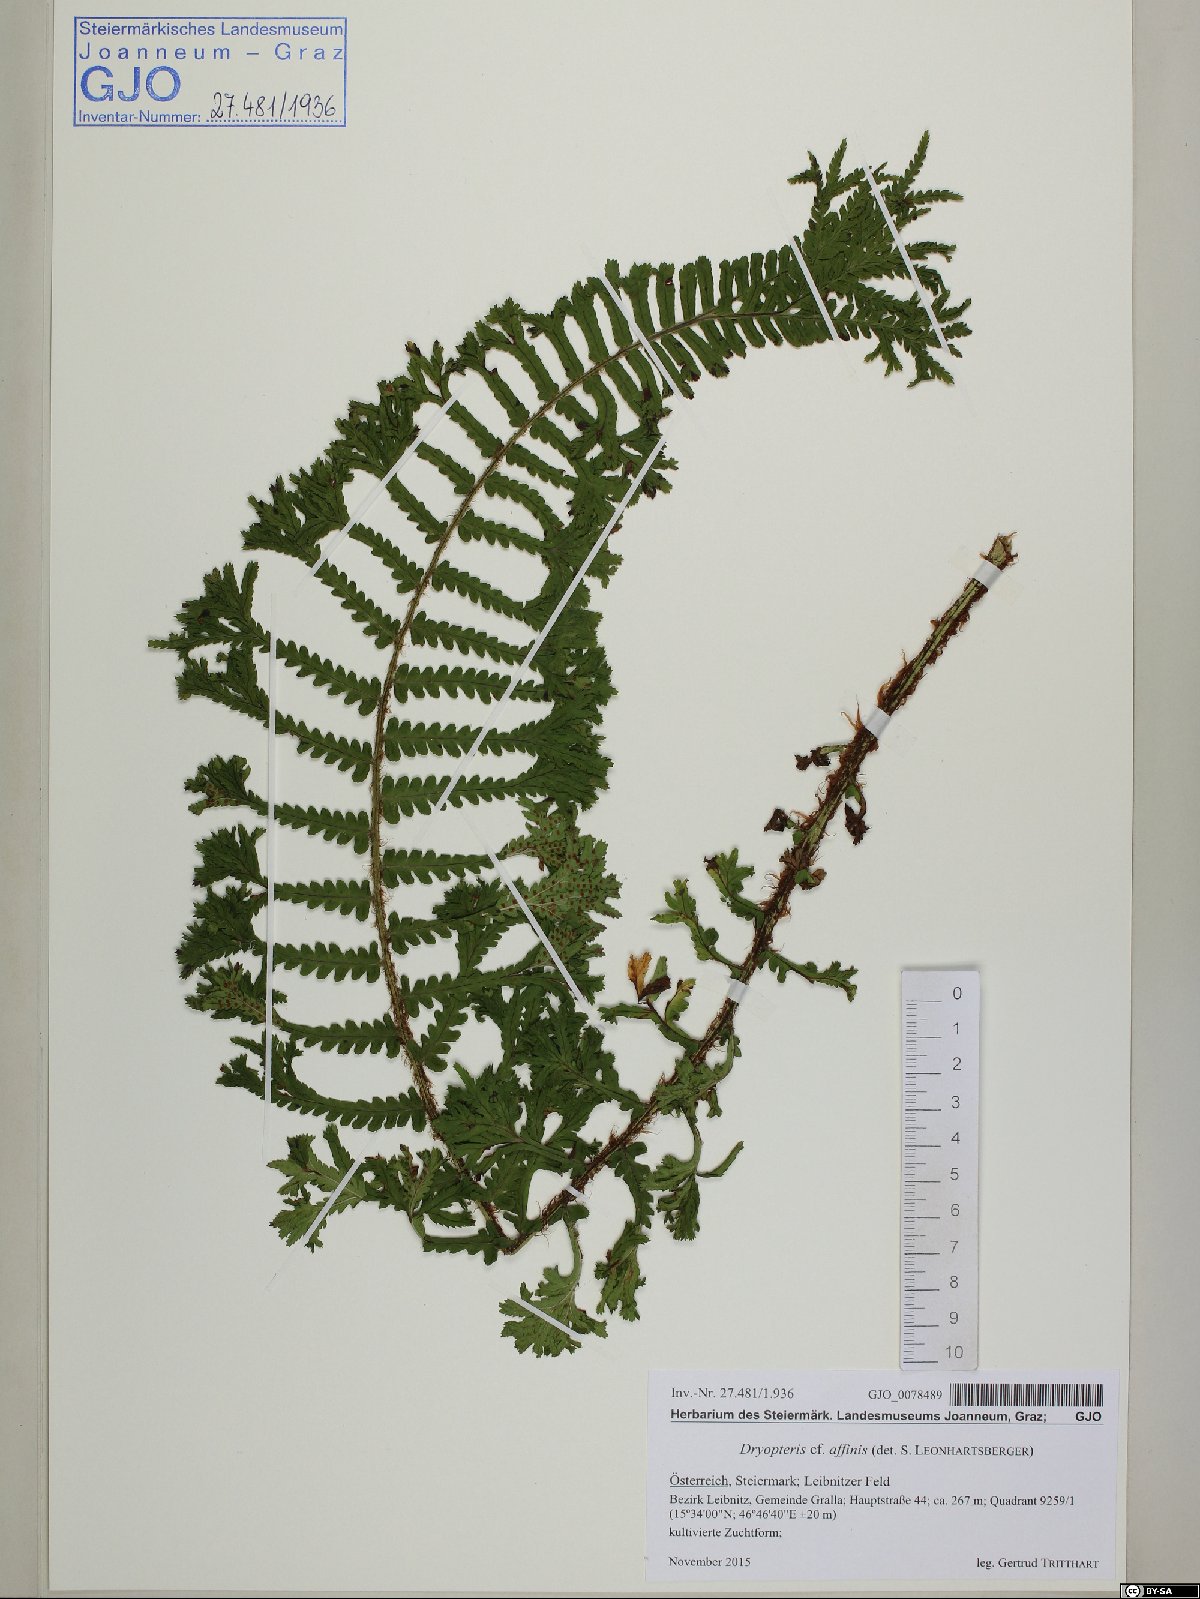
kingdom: Plantae
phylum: Tracheophyta
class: Polypodiopsida
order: Polypodiales
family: Dryopteridaceae
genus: Dryopteris
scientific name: Dryopteris affinis
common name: Scaly male fern
